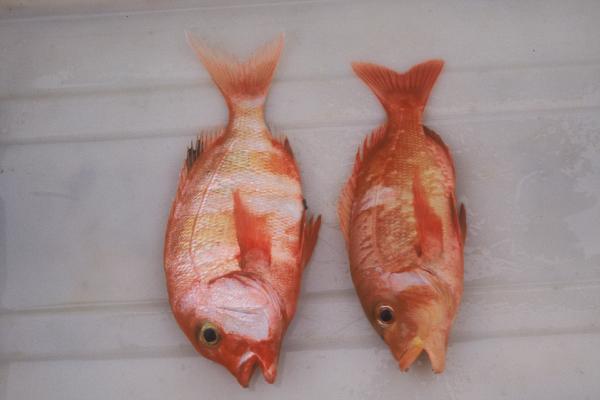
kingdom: Animalia
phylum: Chordata
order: Perciformes
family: Sparidae
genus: Chrysoblephus
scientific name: Chrysoblephus gibbiceps
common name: Red stumpnose
